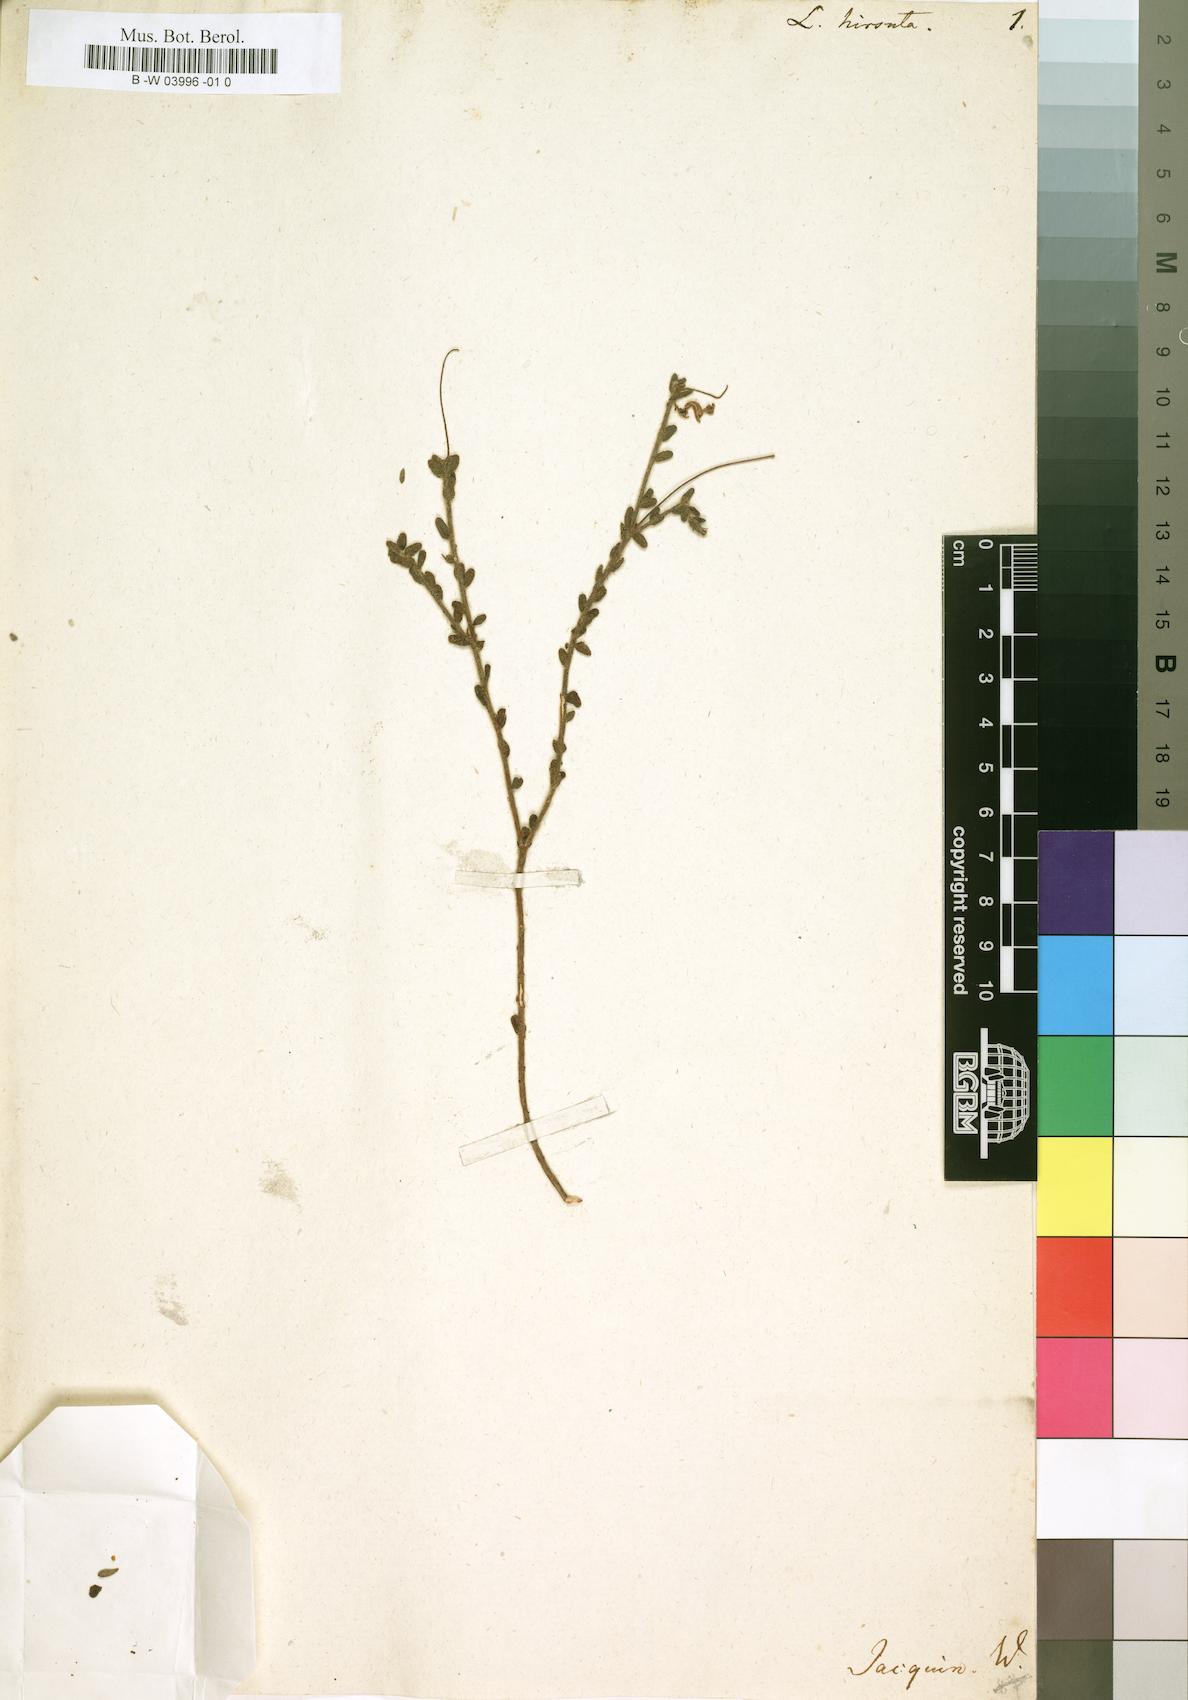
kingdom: Plantae
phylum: Tracheophyta
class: Magnoliopsida
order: Asterales
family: Campanulaceae
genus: Lobelia
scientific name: Lobelia hirta
